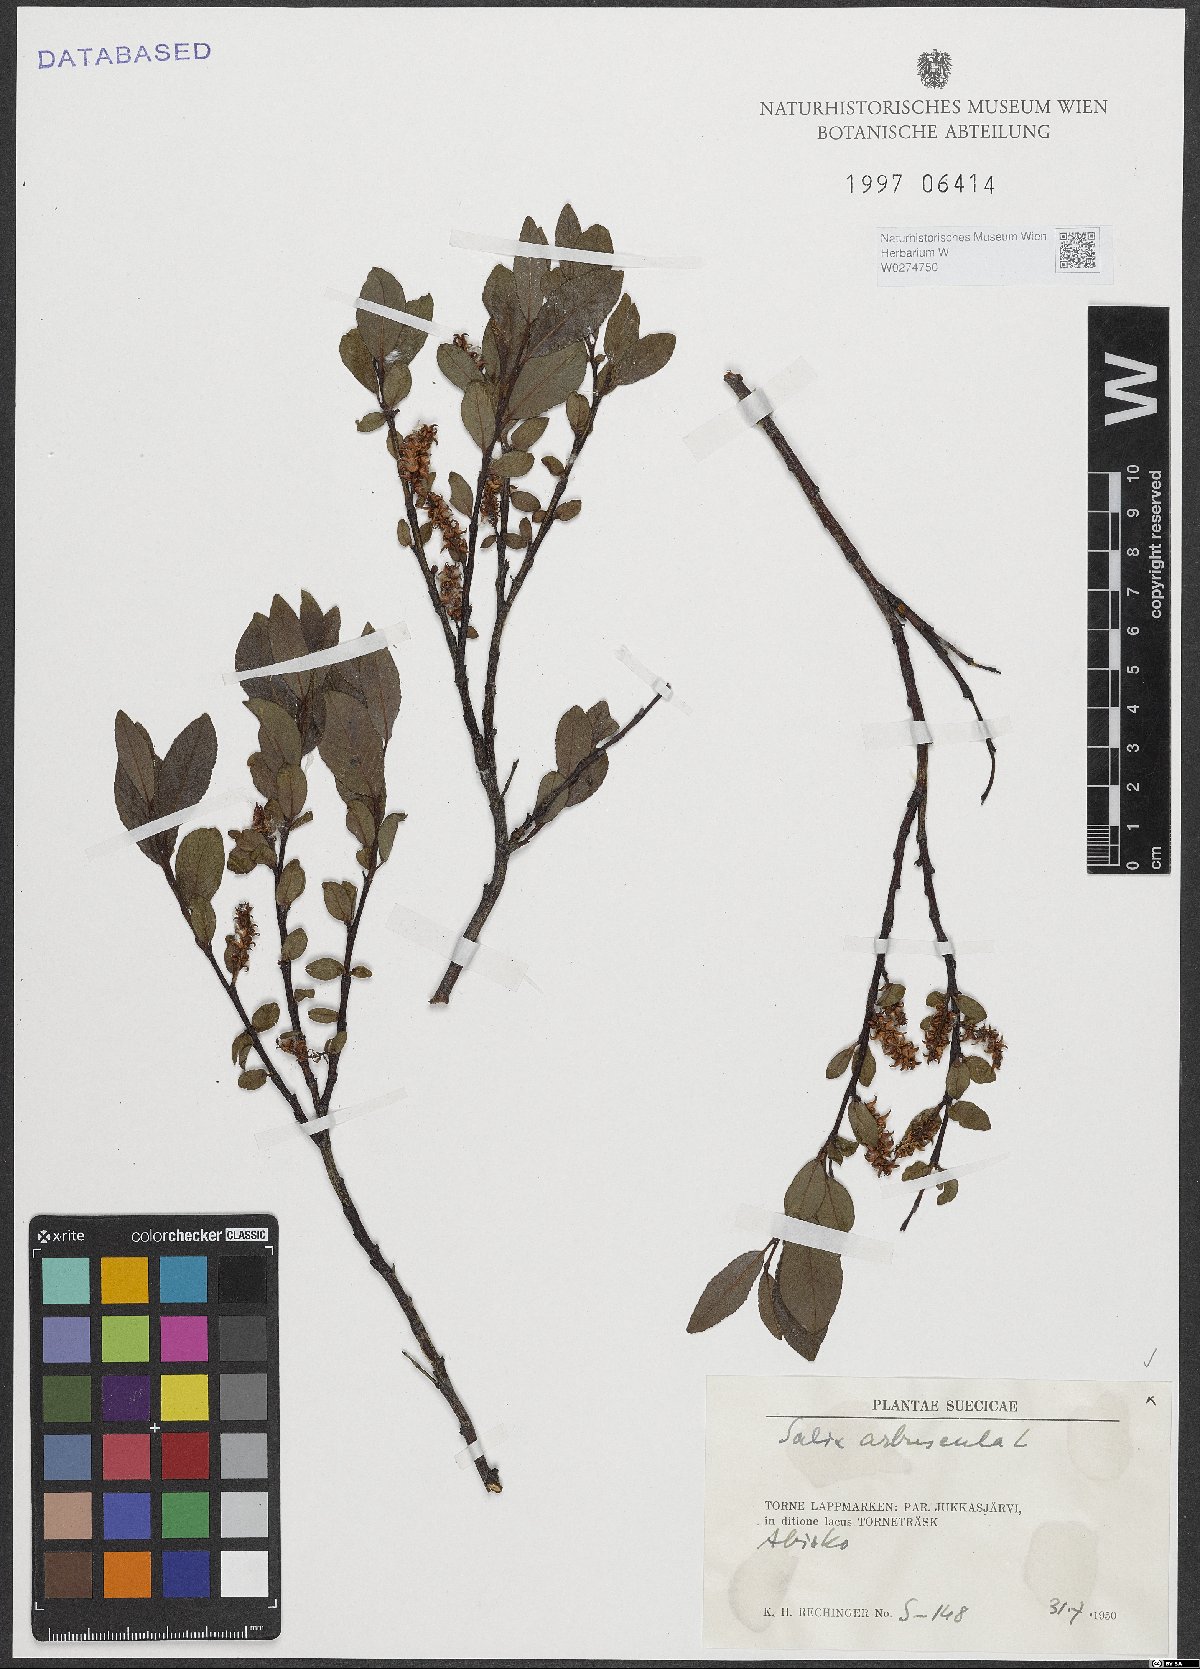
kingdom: Plantae
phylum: Tracheophyta
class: Magnoliopsida
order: Malpighiales
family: Salicaceae
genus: Salix
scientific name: Salix arbuscula
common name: Mountain willow
